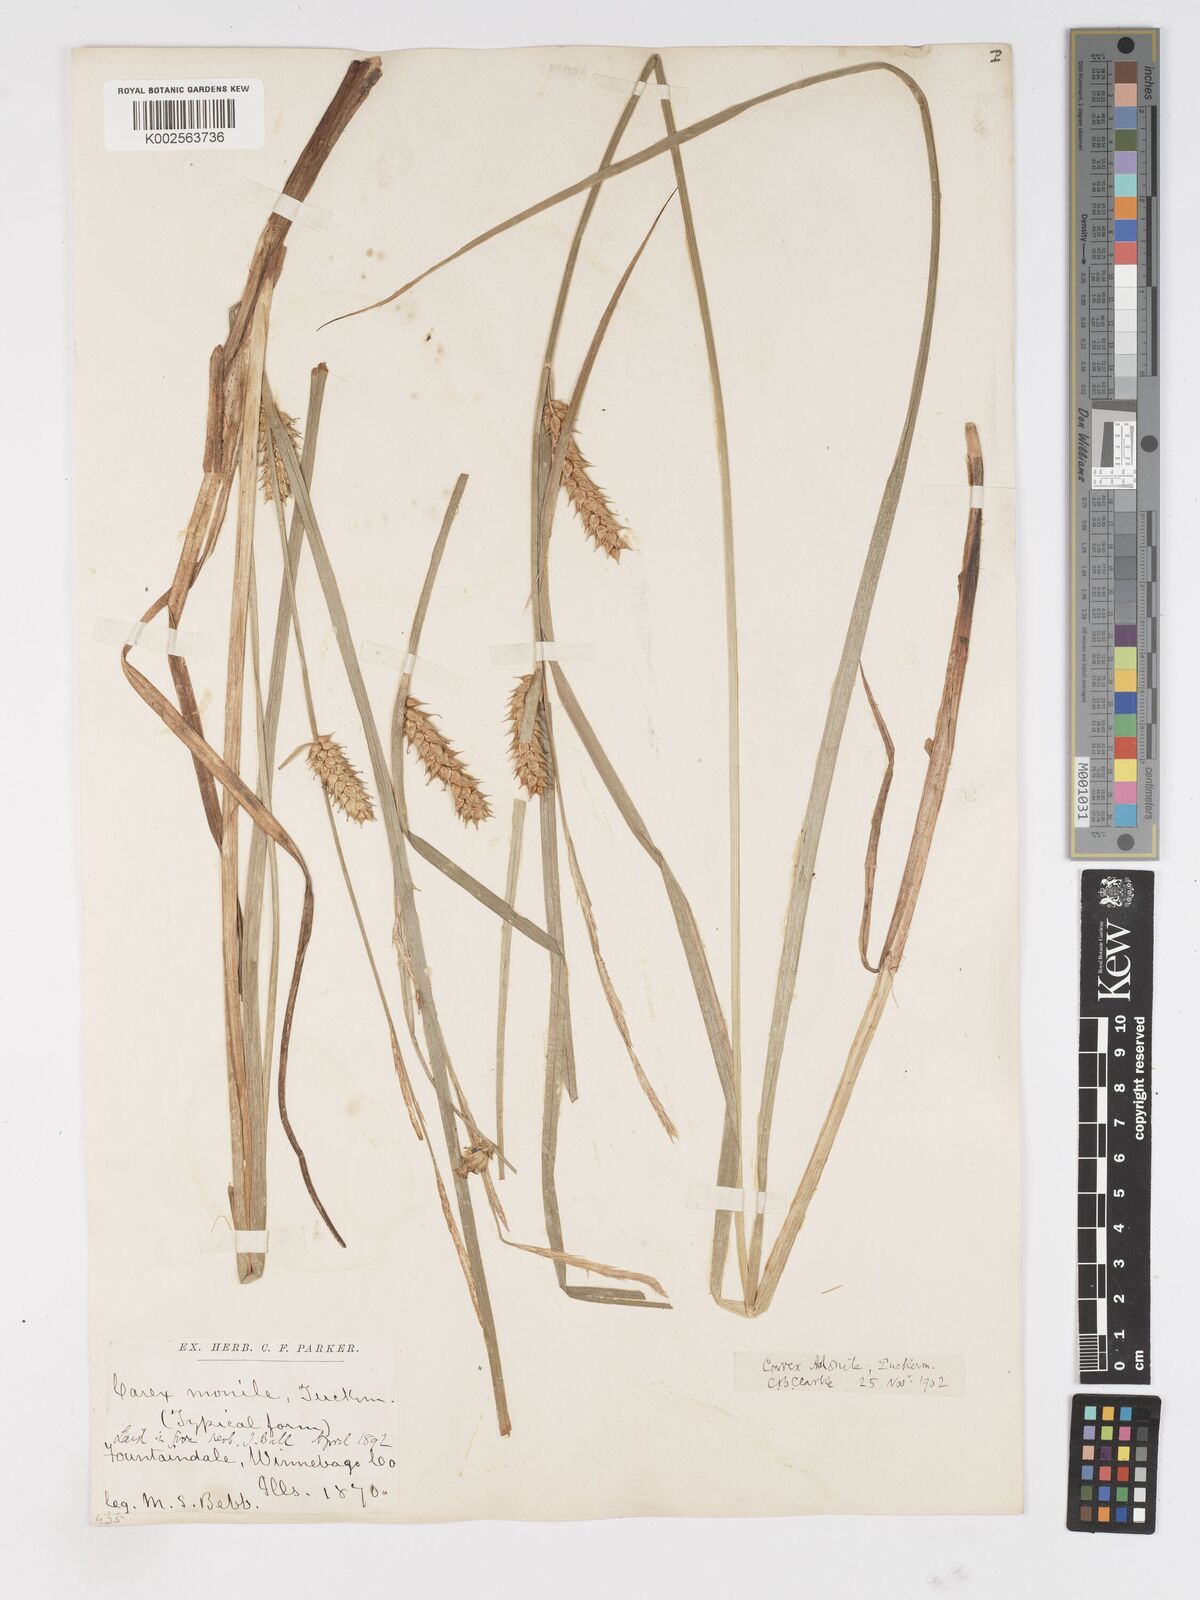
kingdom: Plantae
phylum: Tracheophyta
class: Liliopsida
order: Poales
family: Cyperaceae
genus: Carex
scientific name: Carex vesicaria
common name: Bladder-sedge
